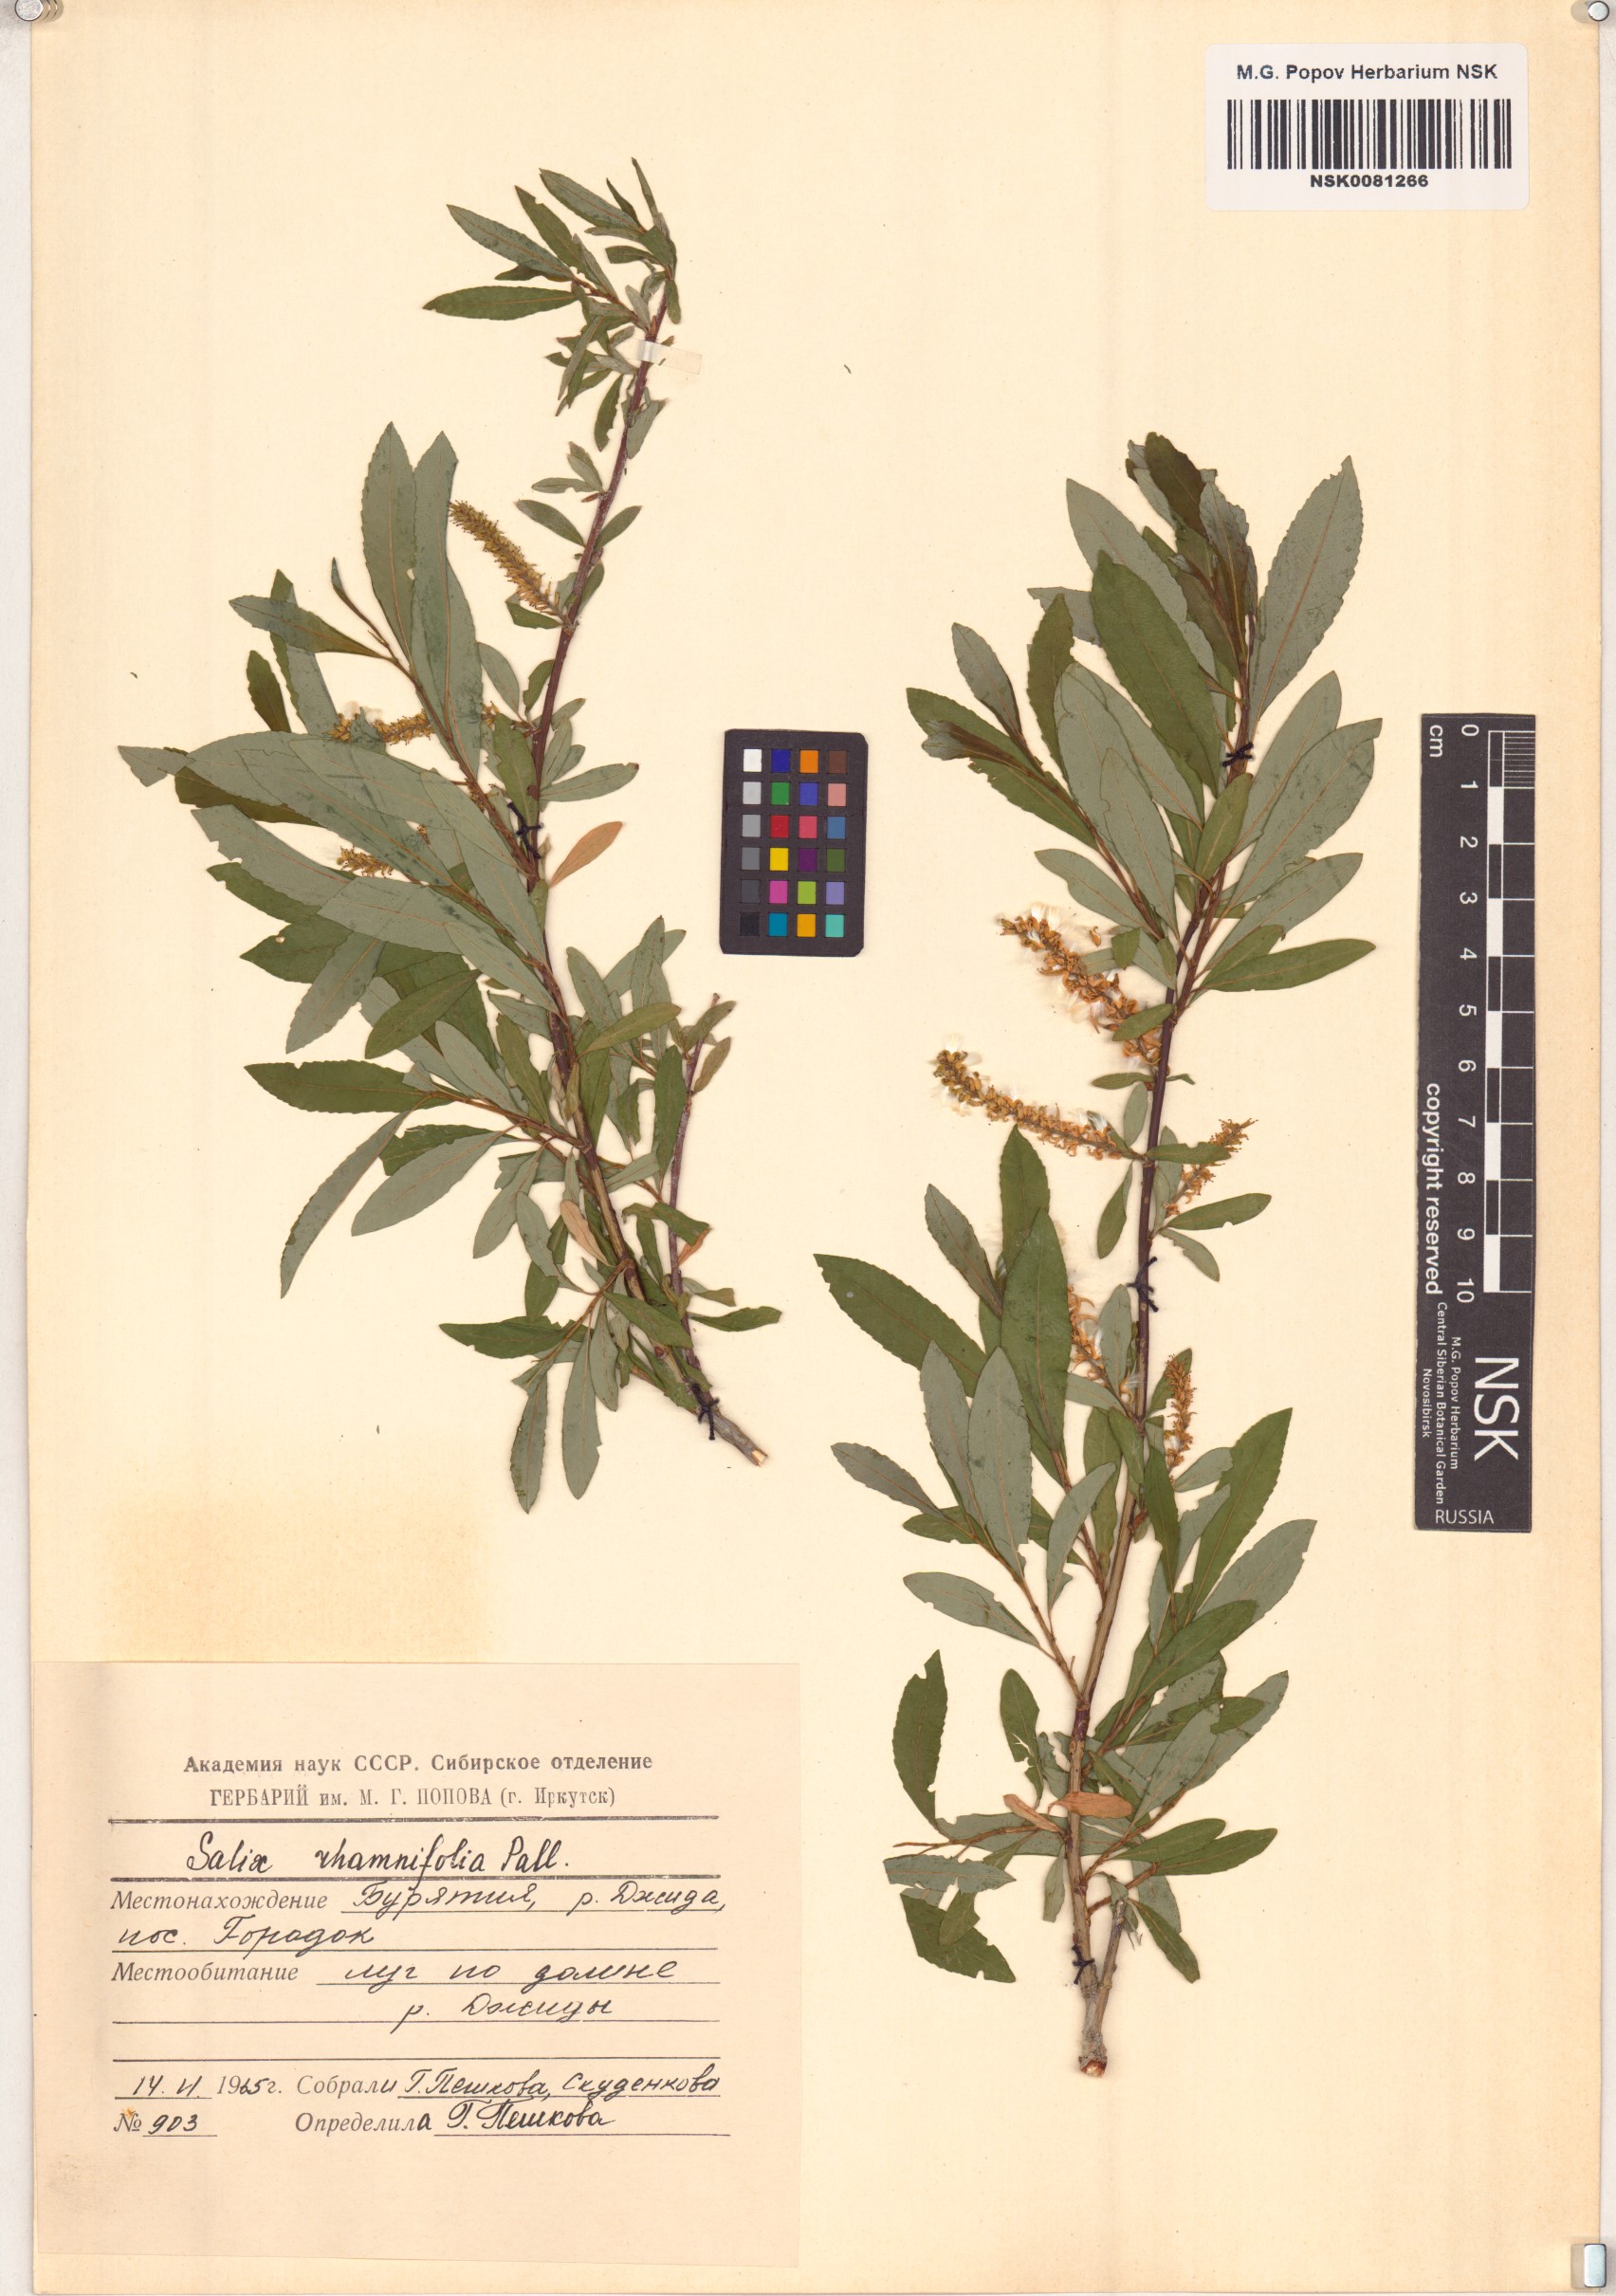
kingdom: Plantae
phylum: Tracheophyta
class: Magnoliopsida
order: Malpighiales
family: Salicaceae
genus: Salix
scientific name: Salix rhamnifolia
